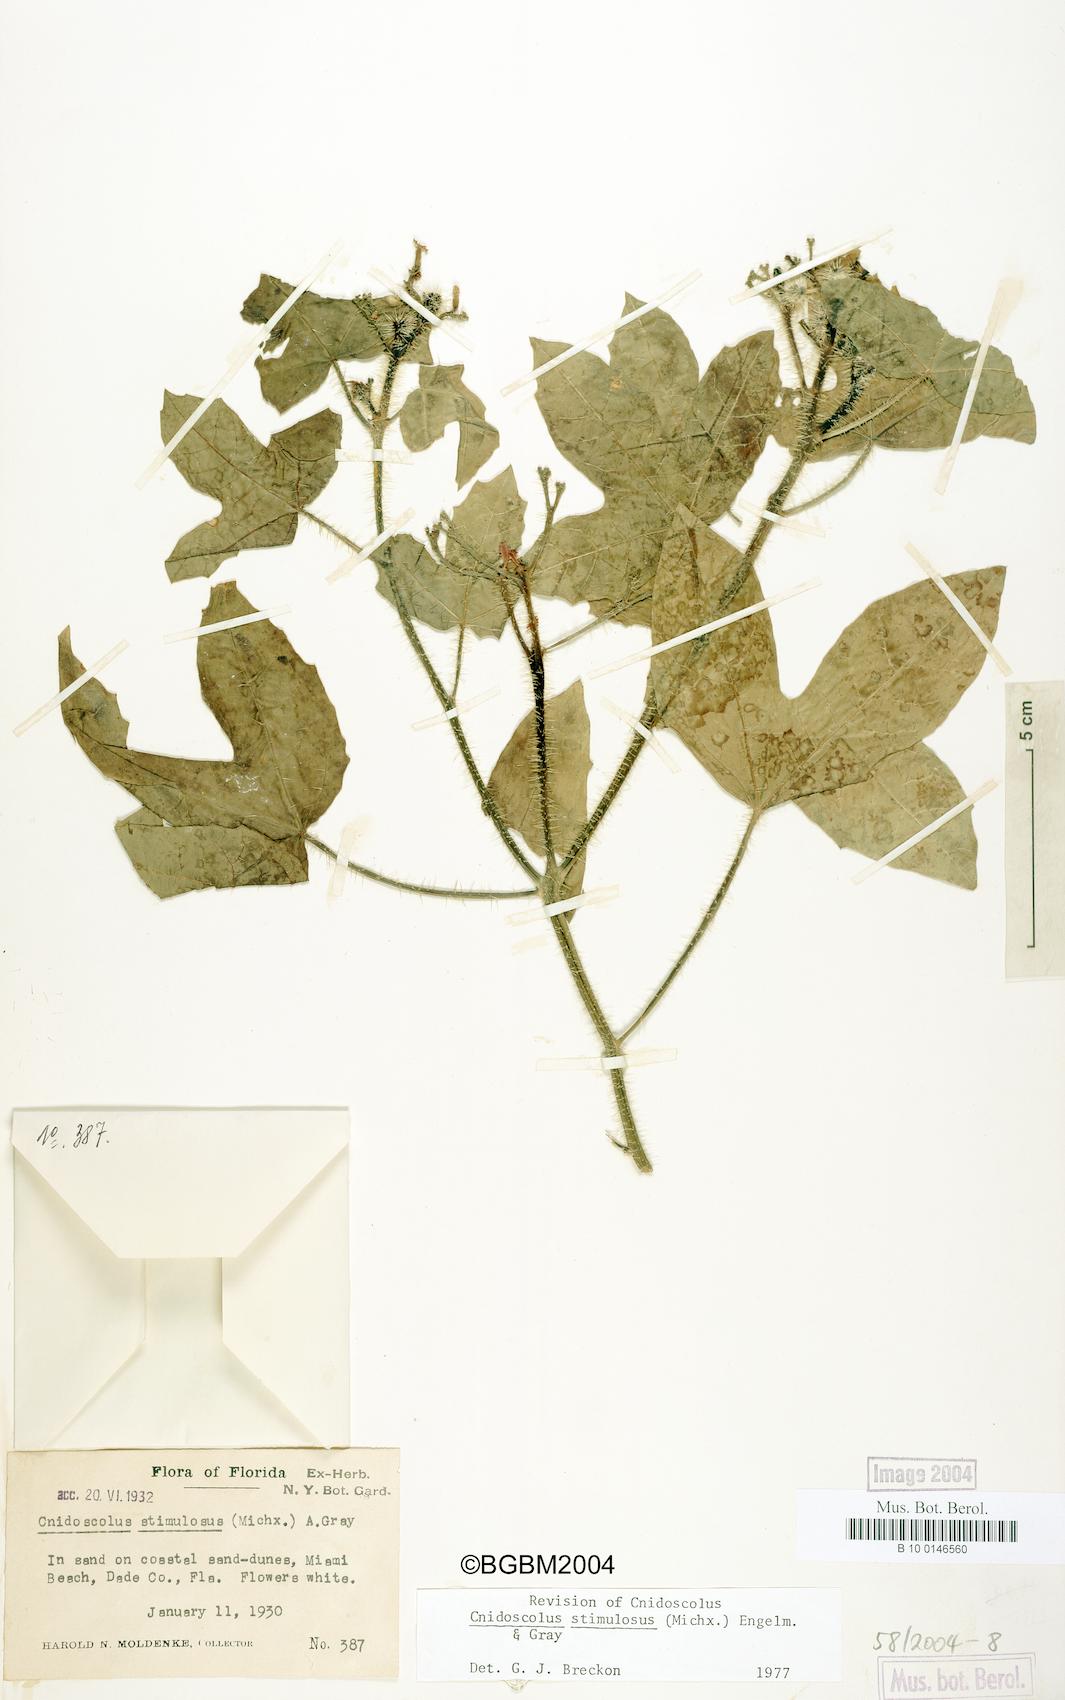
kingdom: Plantae
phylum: Tracheophyta
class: Magnoliopsida
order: Malpighiales
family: Euphorbiaceae
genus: Cnidoscolus
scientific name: Cnidoscolus stimulosus
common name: Bull-nettle
